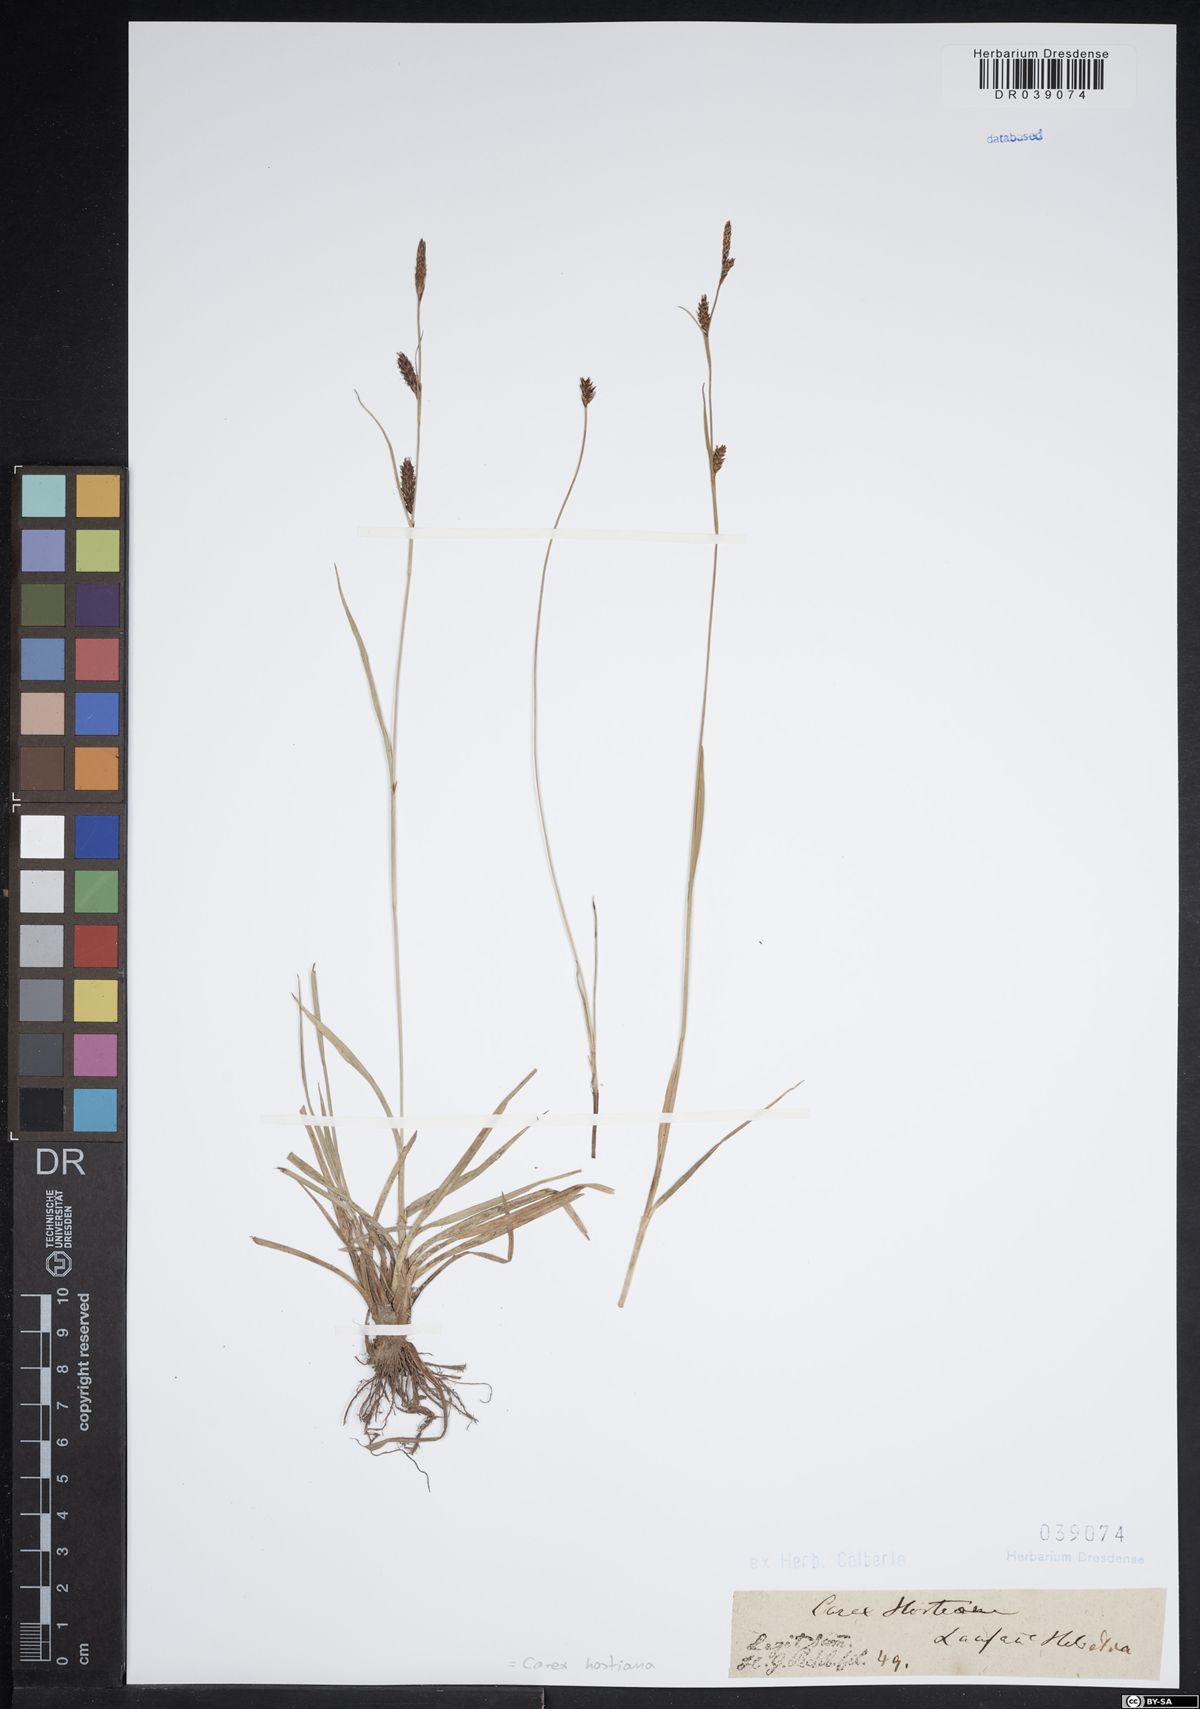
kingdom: Plantae
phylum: Tracheophyta
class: Liliopsida
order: Poales
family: Cyperaceae
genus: Carex
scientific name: Carex hostiana
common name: Tawny sedge
